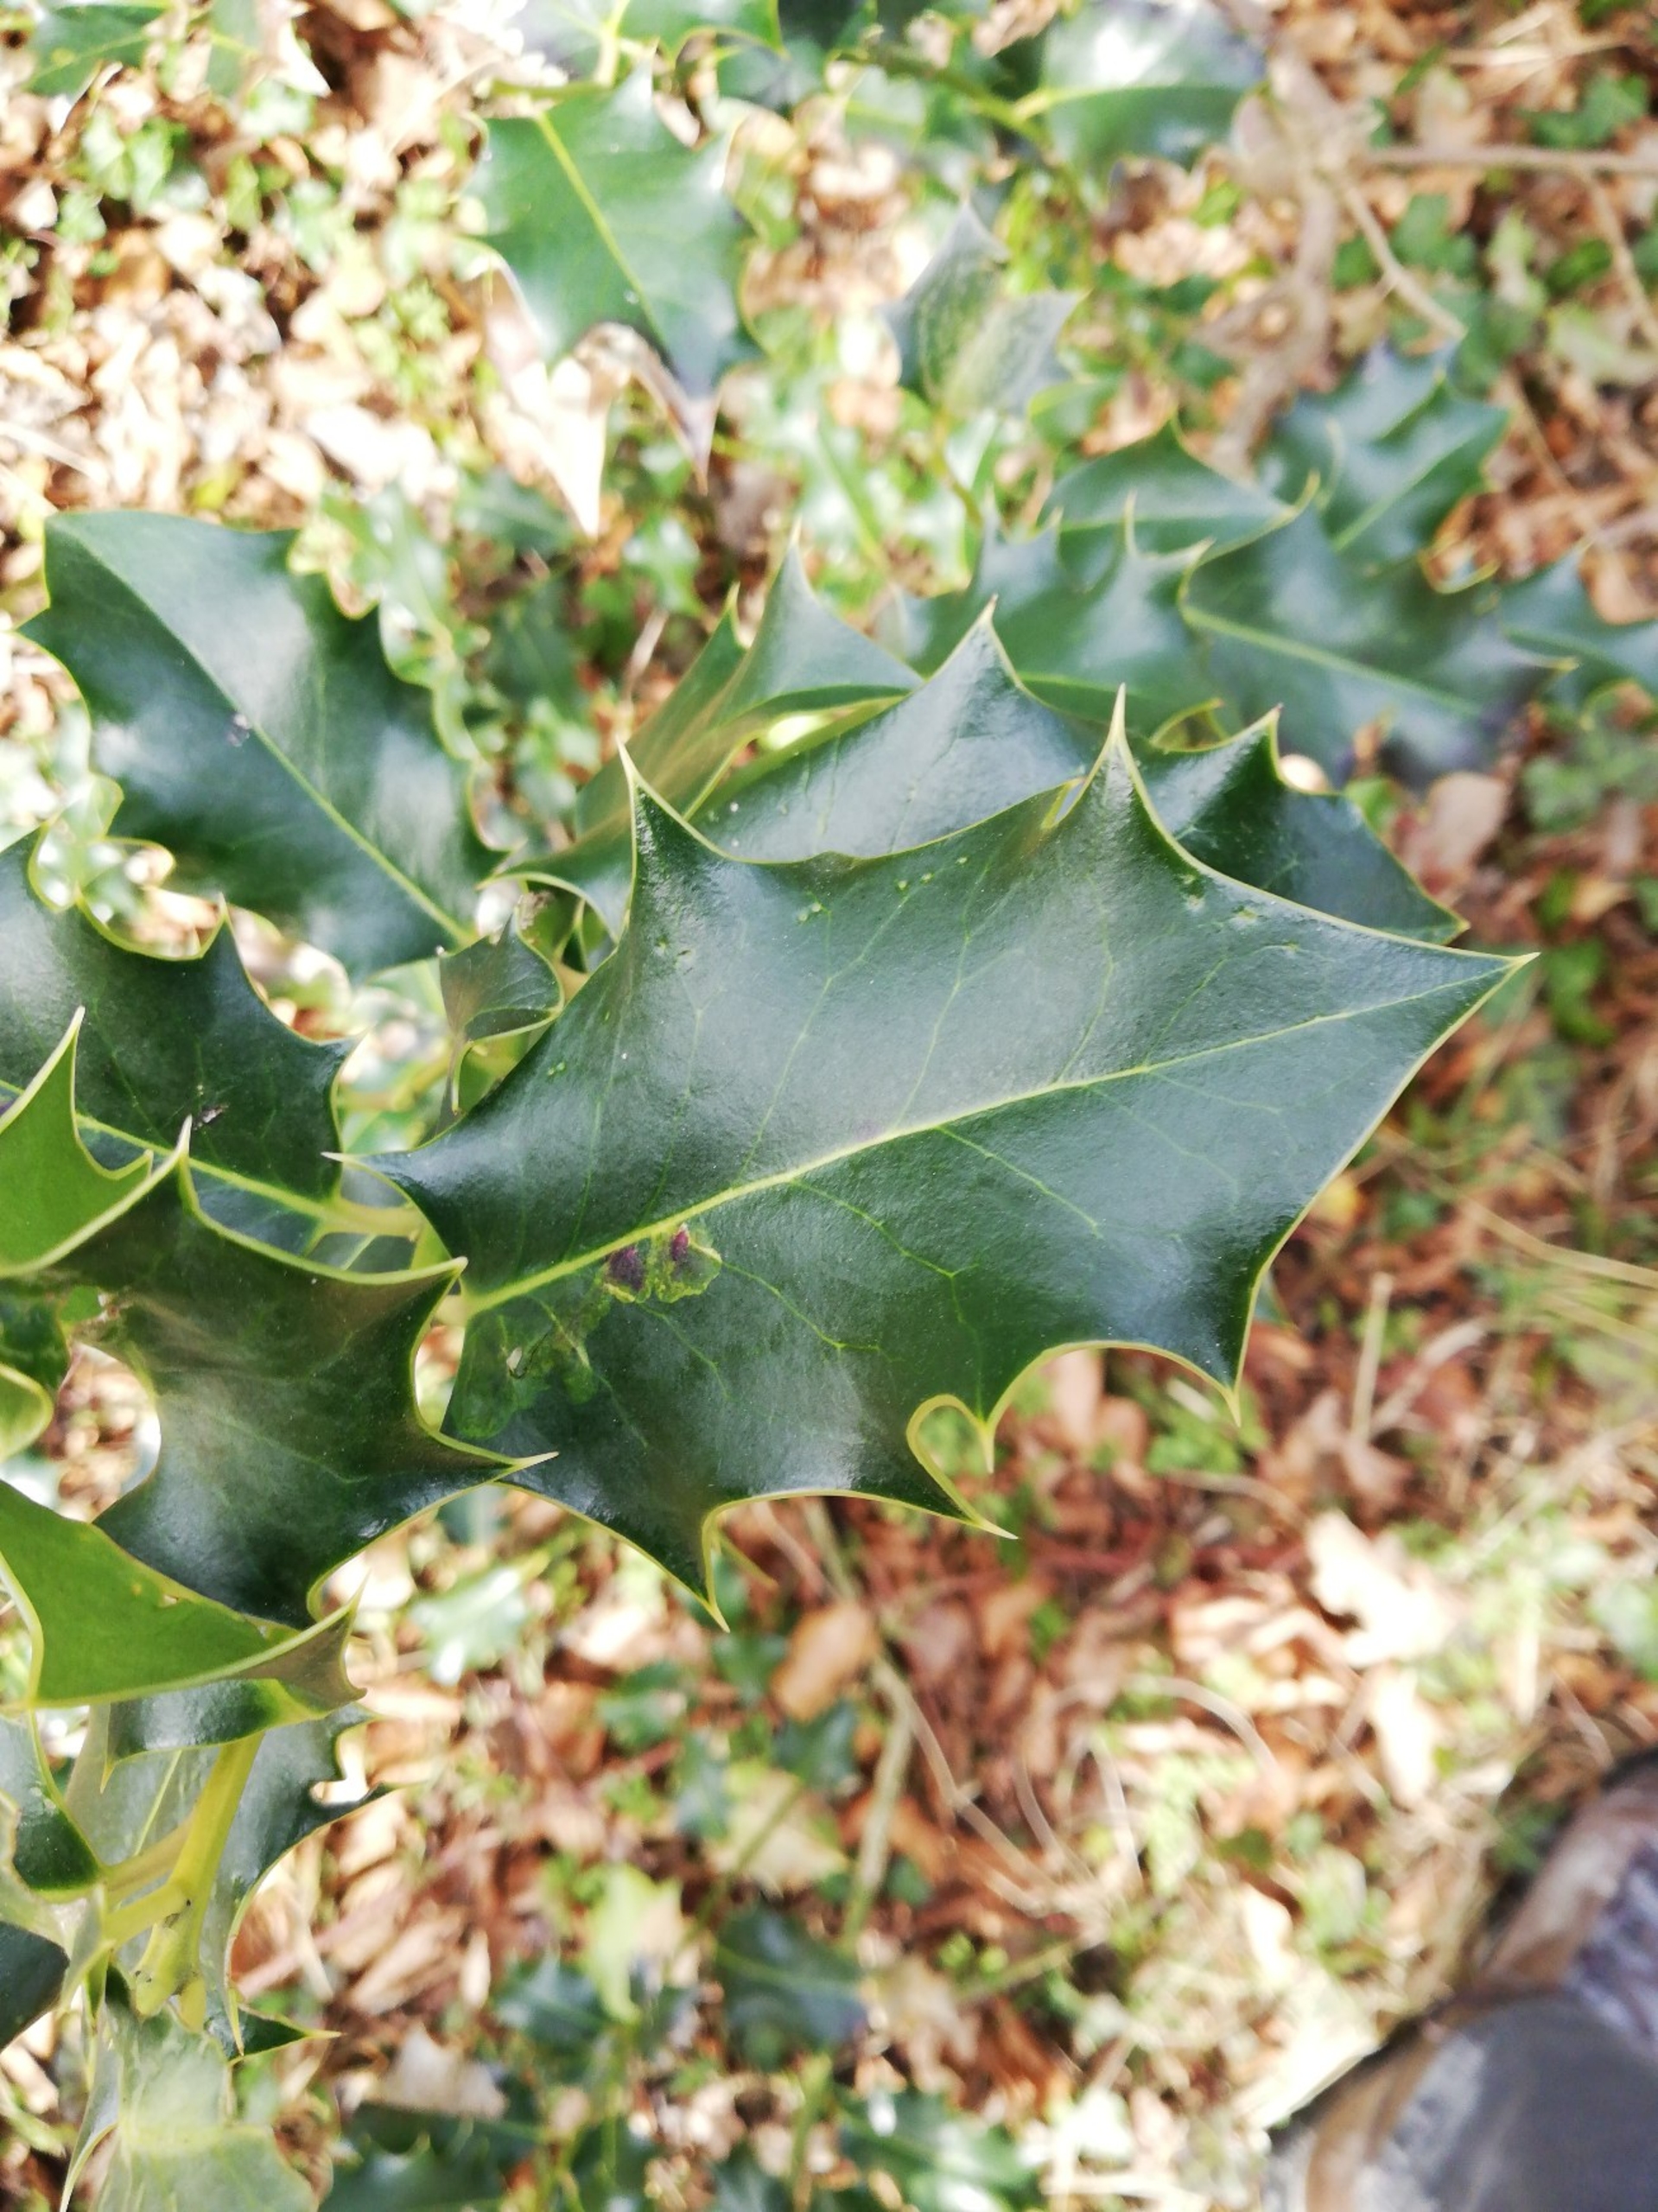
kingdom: Plantae
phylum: Tracheophyta
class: Magnoliopsida
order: Aquifoliales
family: Aquifoliaceae
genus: Ilex
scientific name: Ilex aquifolium
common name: Kristtorn
